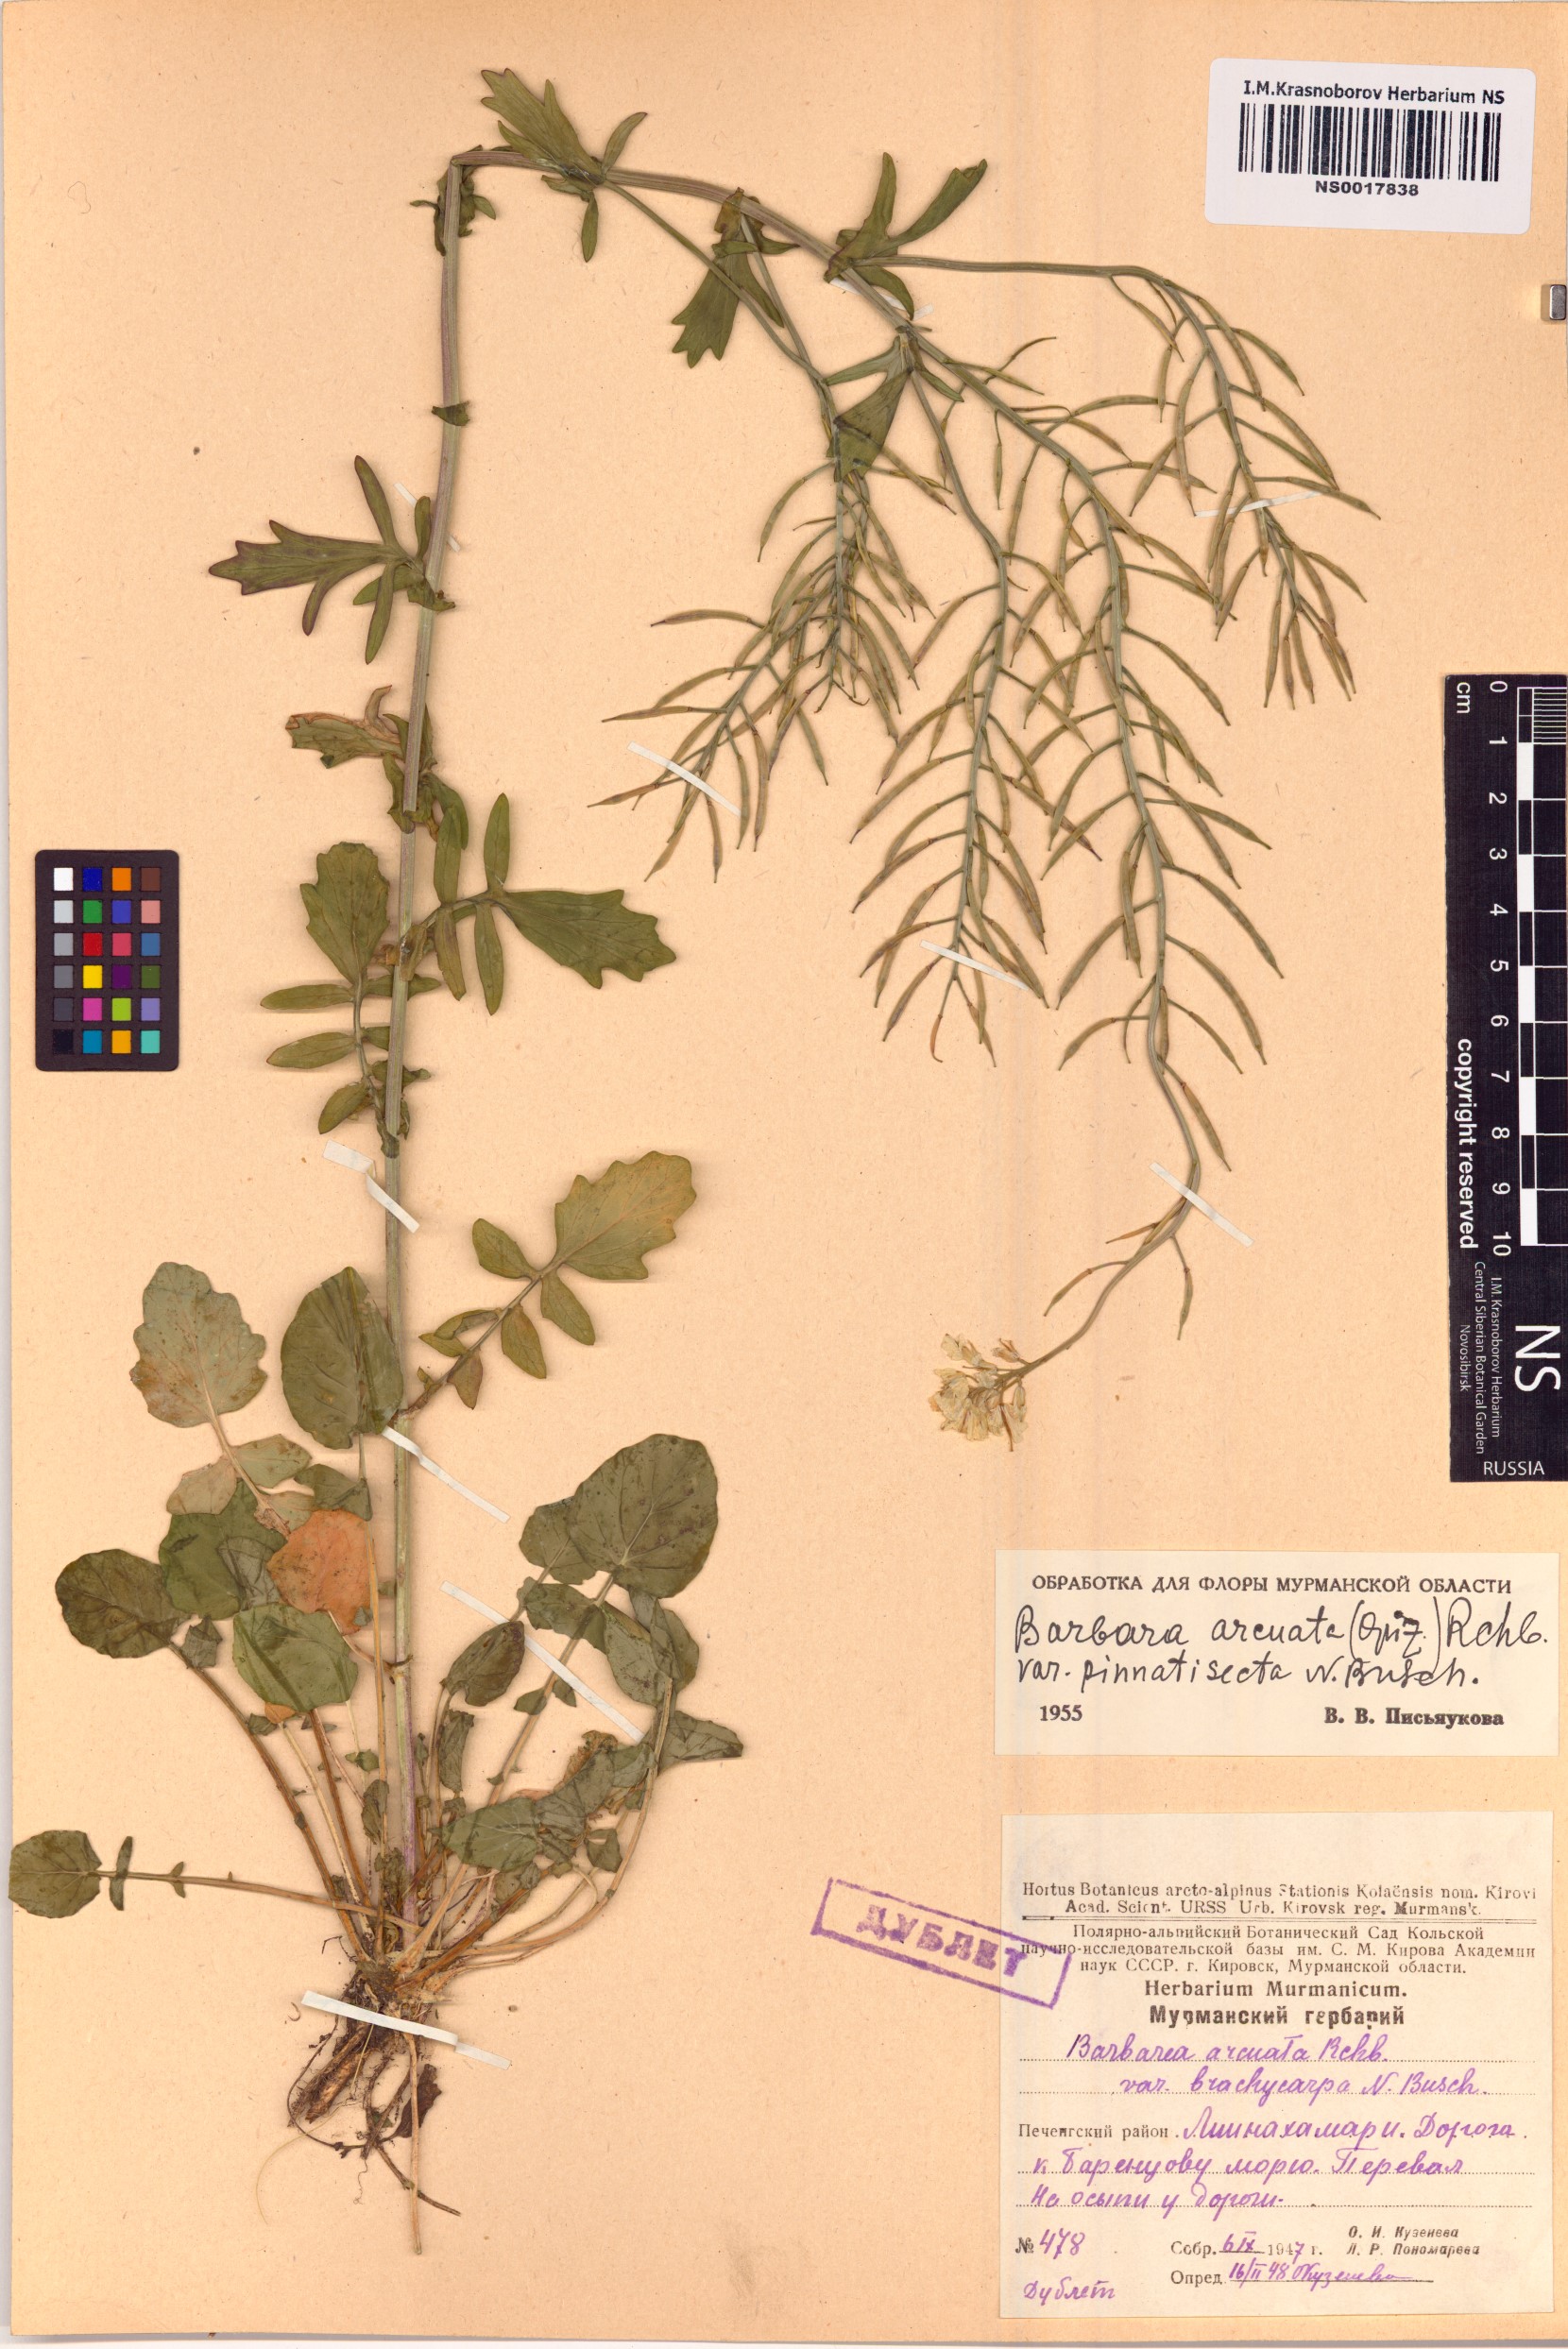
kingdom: Plantae
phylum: Tracheophyta
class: Magnoliopsida
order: Brassicales
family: Brassicaceae
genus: Barbarea
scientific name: Barbarea vulgaris
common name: Cressy-greens
